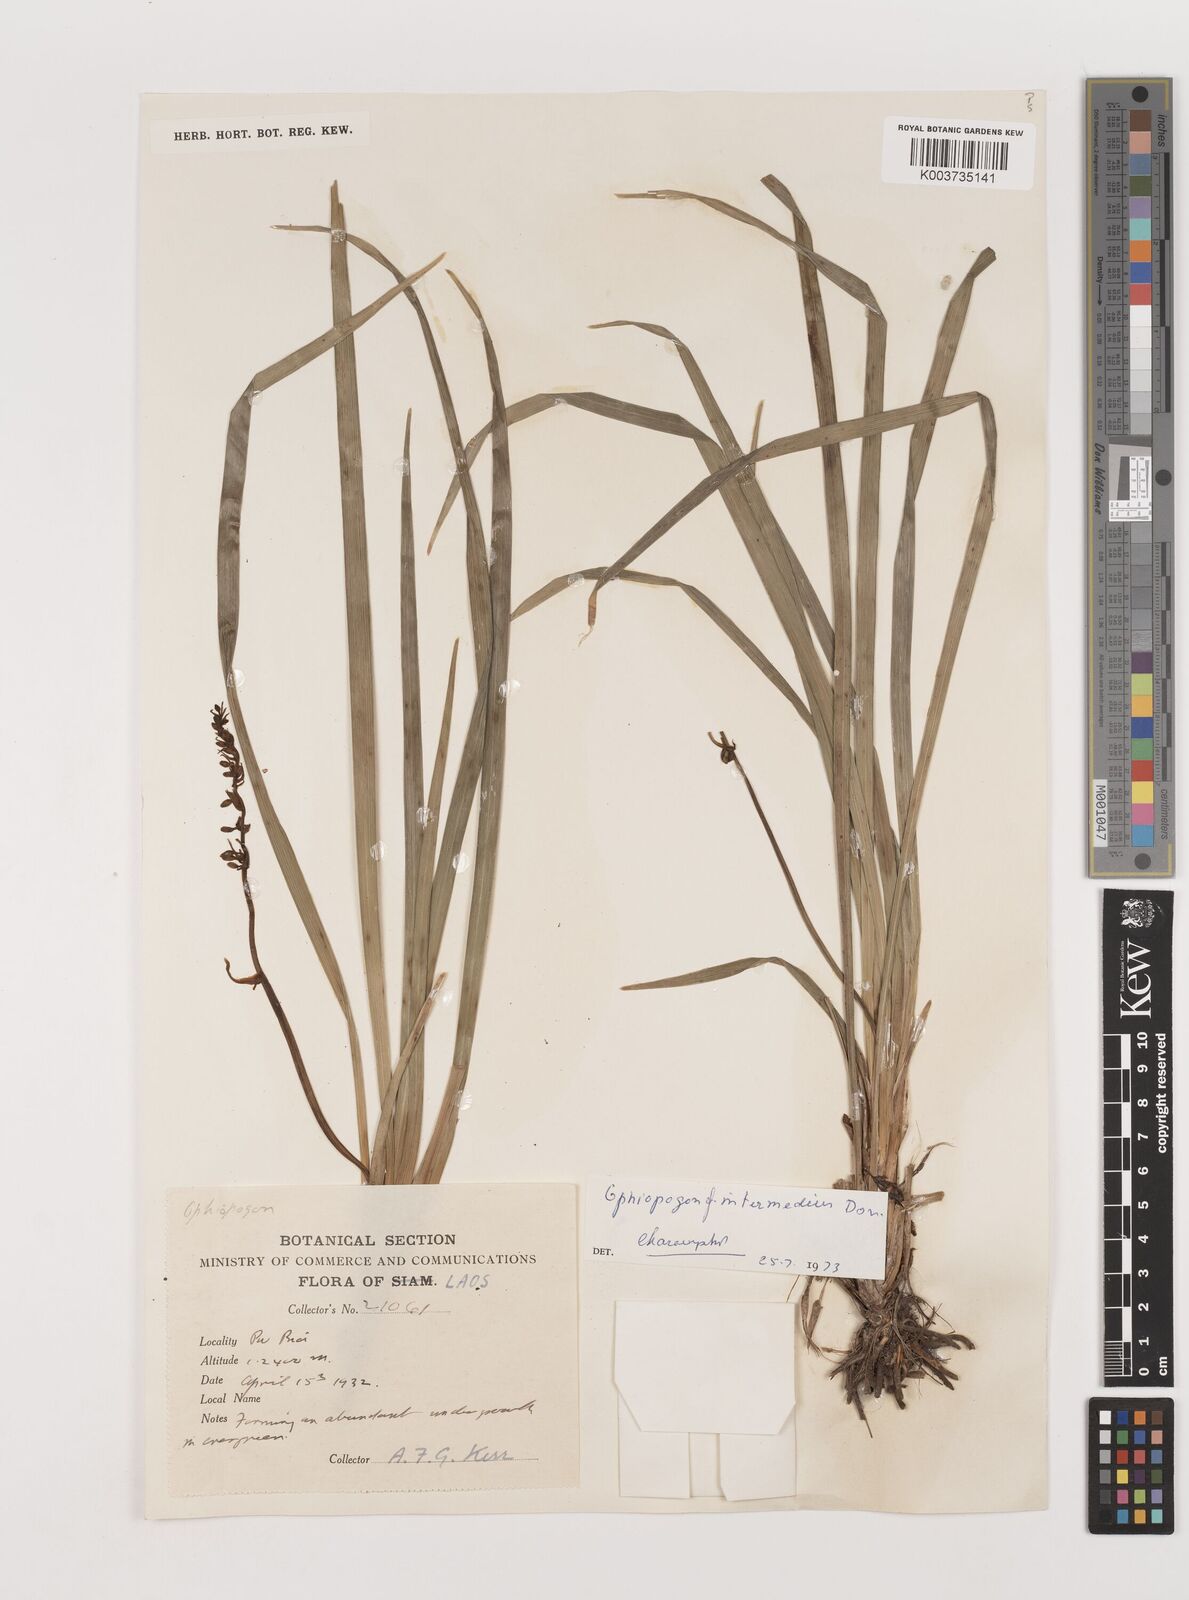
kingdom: Plantae
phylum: Tracheophyta
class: Liliopsida
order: Asparagales
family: Asparagaceae
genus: Ophiopogon
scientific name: Ophiopogon intermedius
